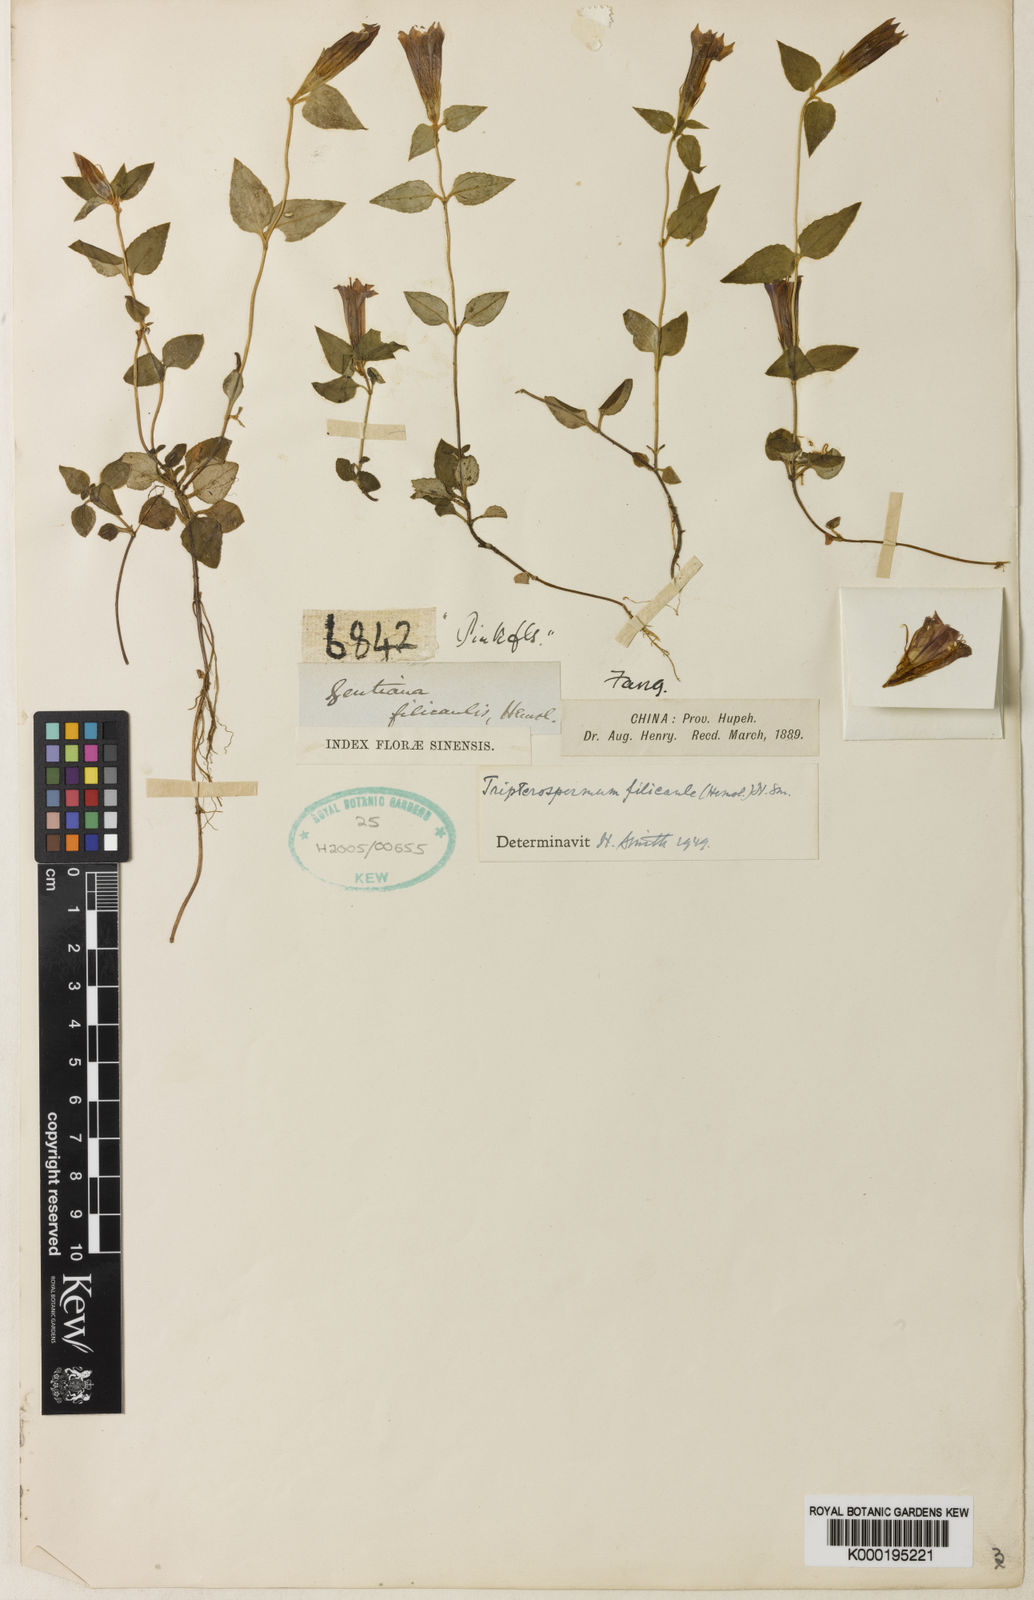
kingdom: Plantae
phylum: Tracheophyta
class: Magnoliopsida
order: Gentianales
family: Gentianaceae
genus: Tripterospermum
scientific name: Tripterospermum filicaule
